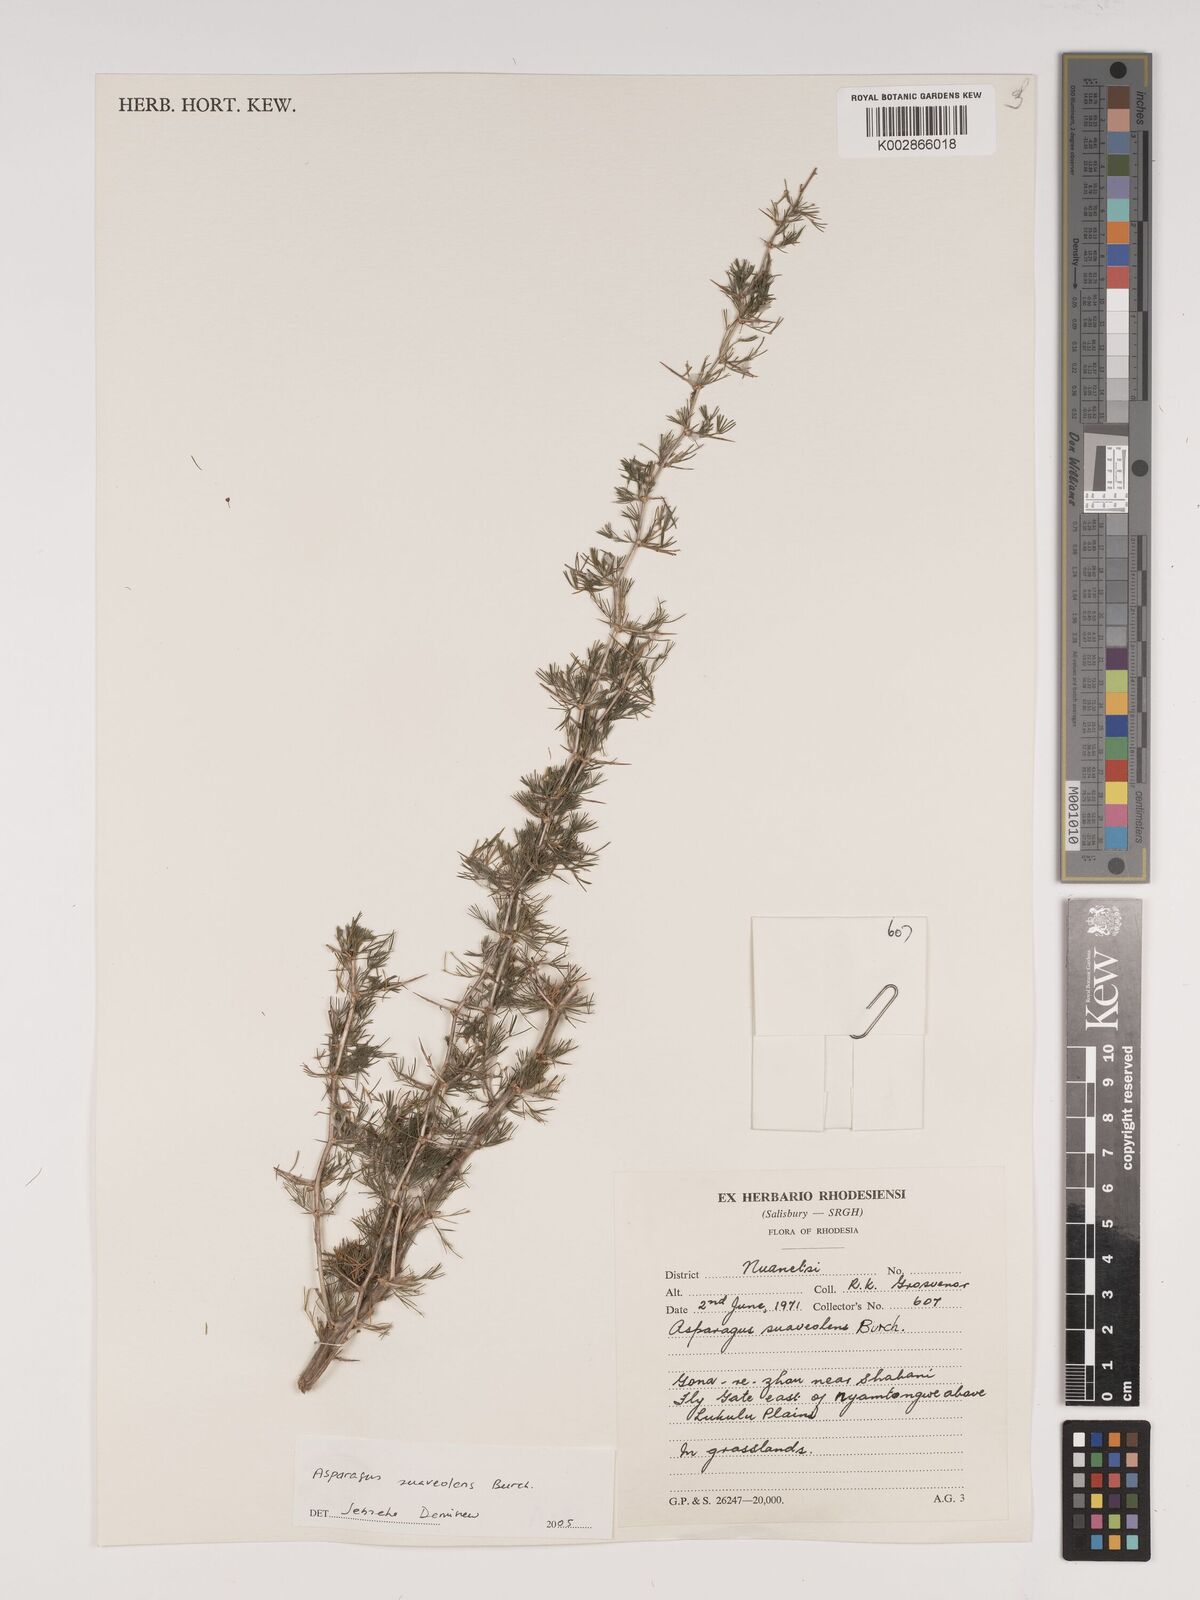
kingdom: Plantae
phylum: Tracheophyta
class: Liliopsida
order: Asparagales
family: Asparagaceae
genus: Asparagus
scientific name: Asparagus suaveolens
